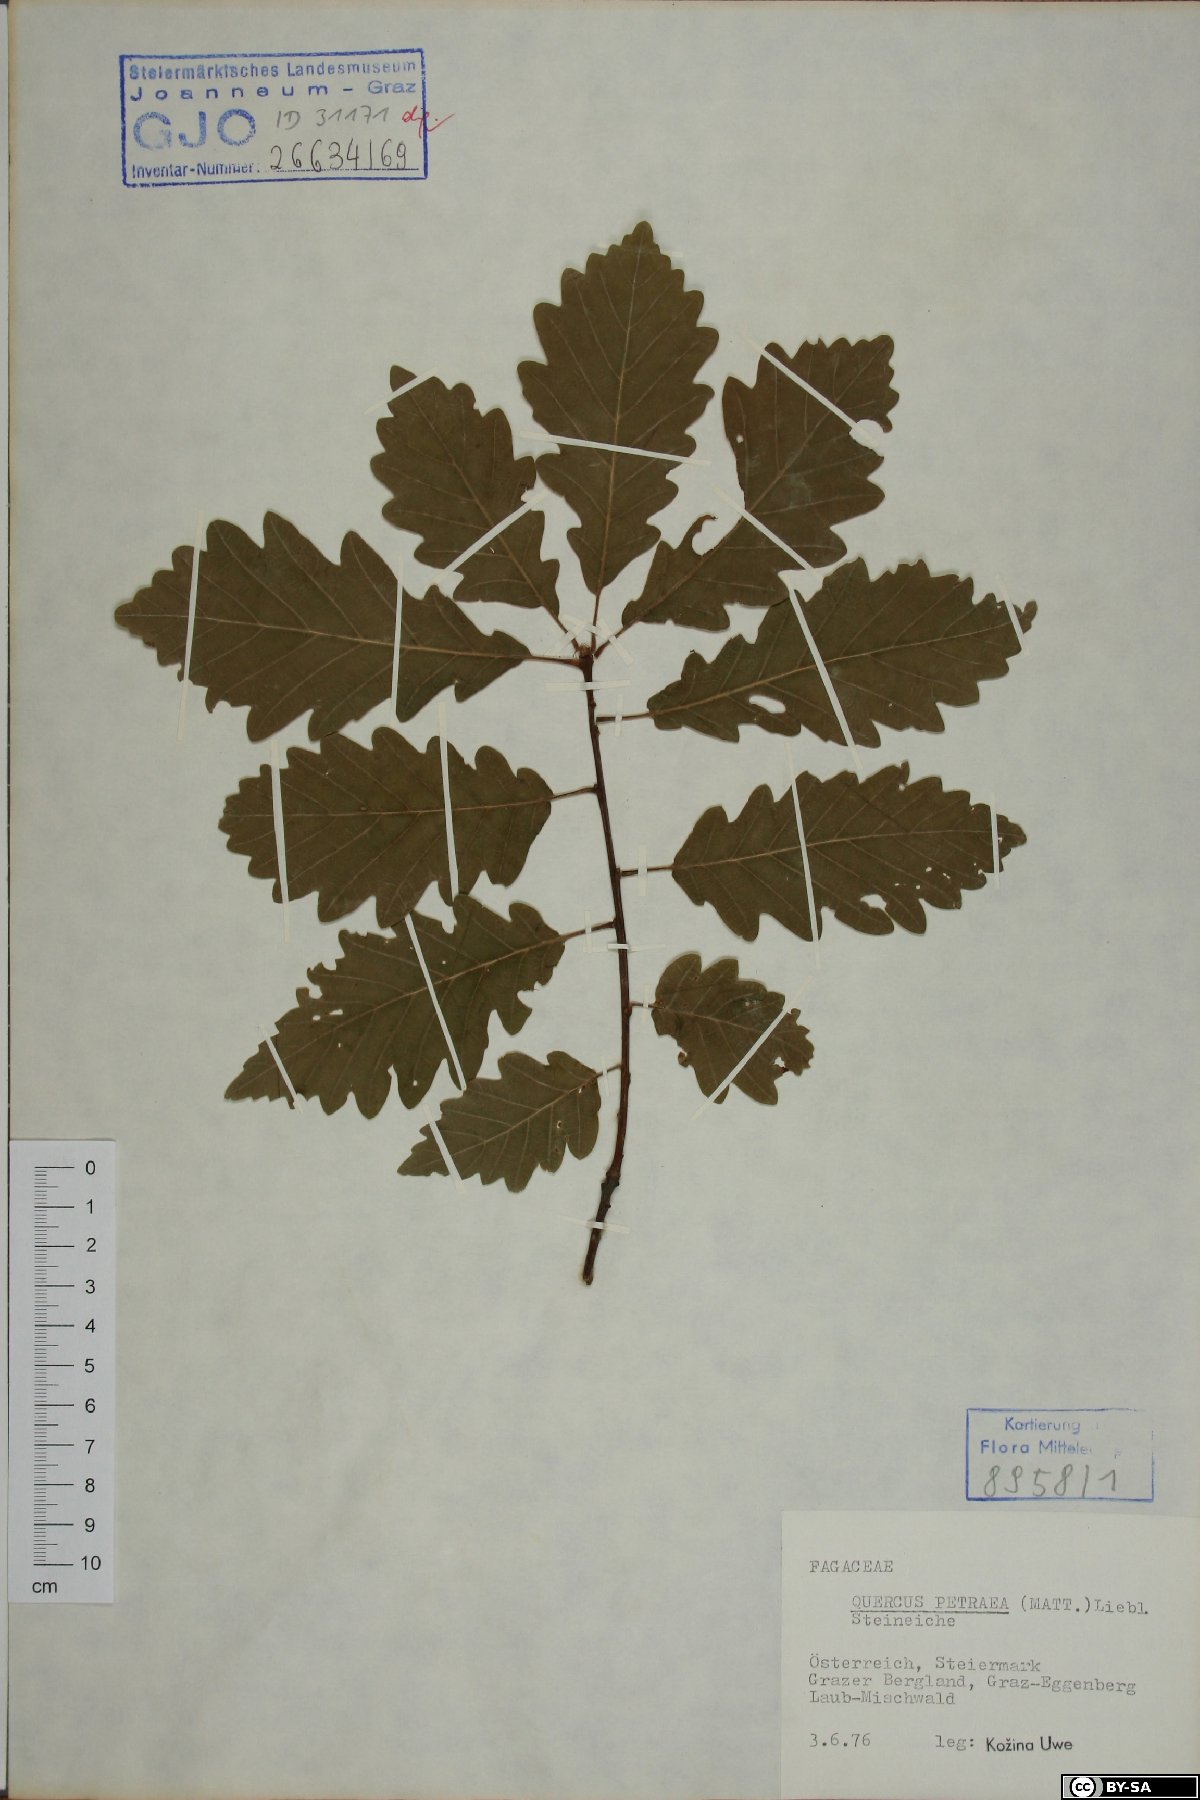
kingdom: Plantae
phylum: Tracheophyta
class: Magnoliopsida
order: Fagales
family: Fagaceae
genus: Quercus
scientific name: Quercus petraea
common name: Sessile oak
